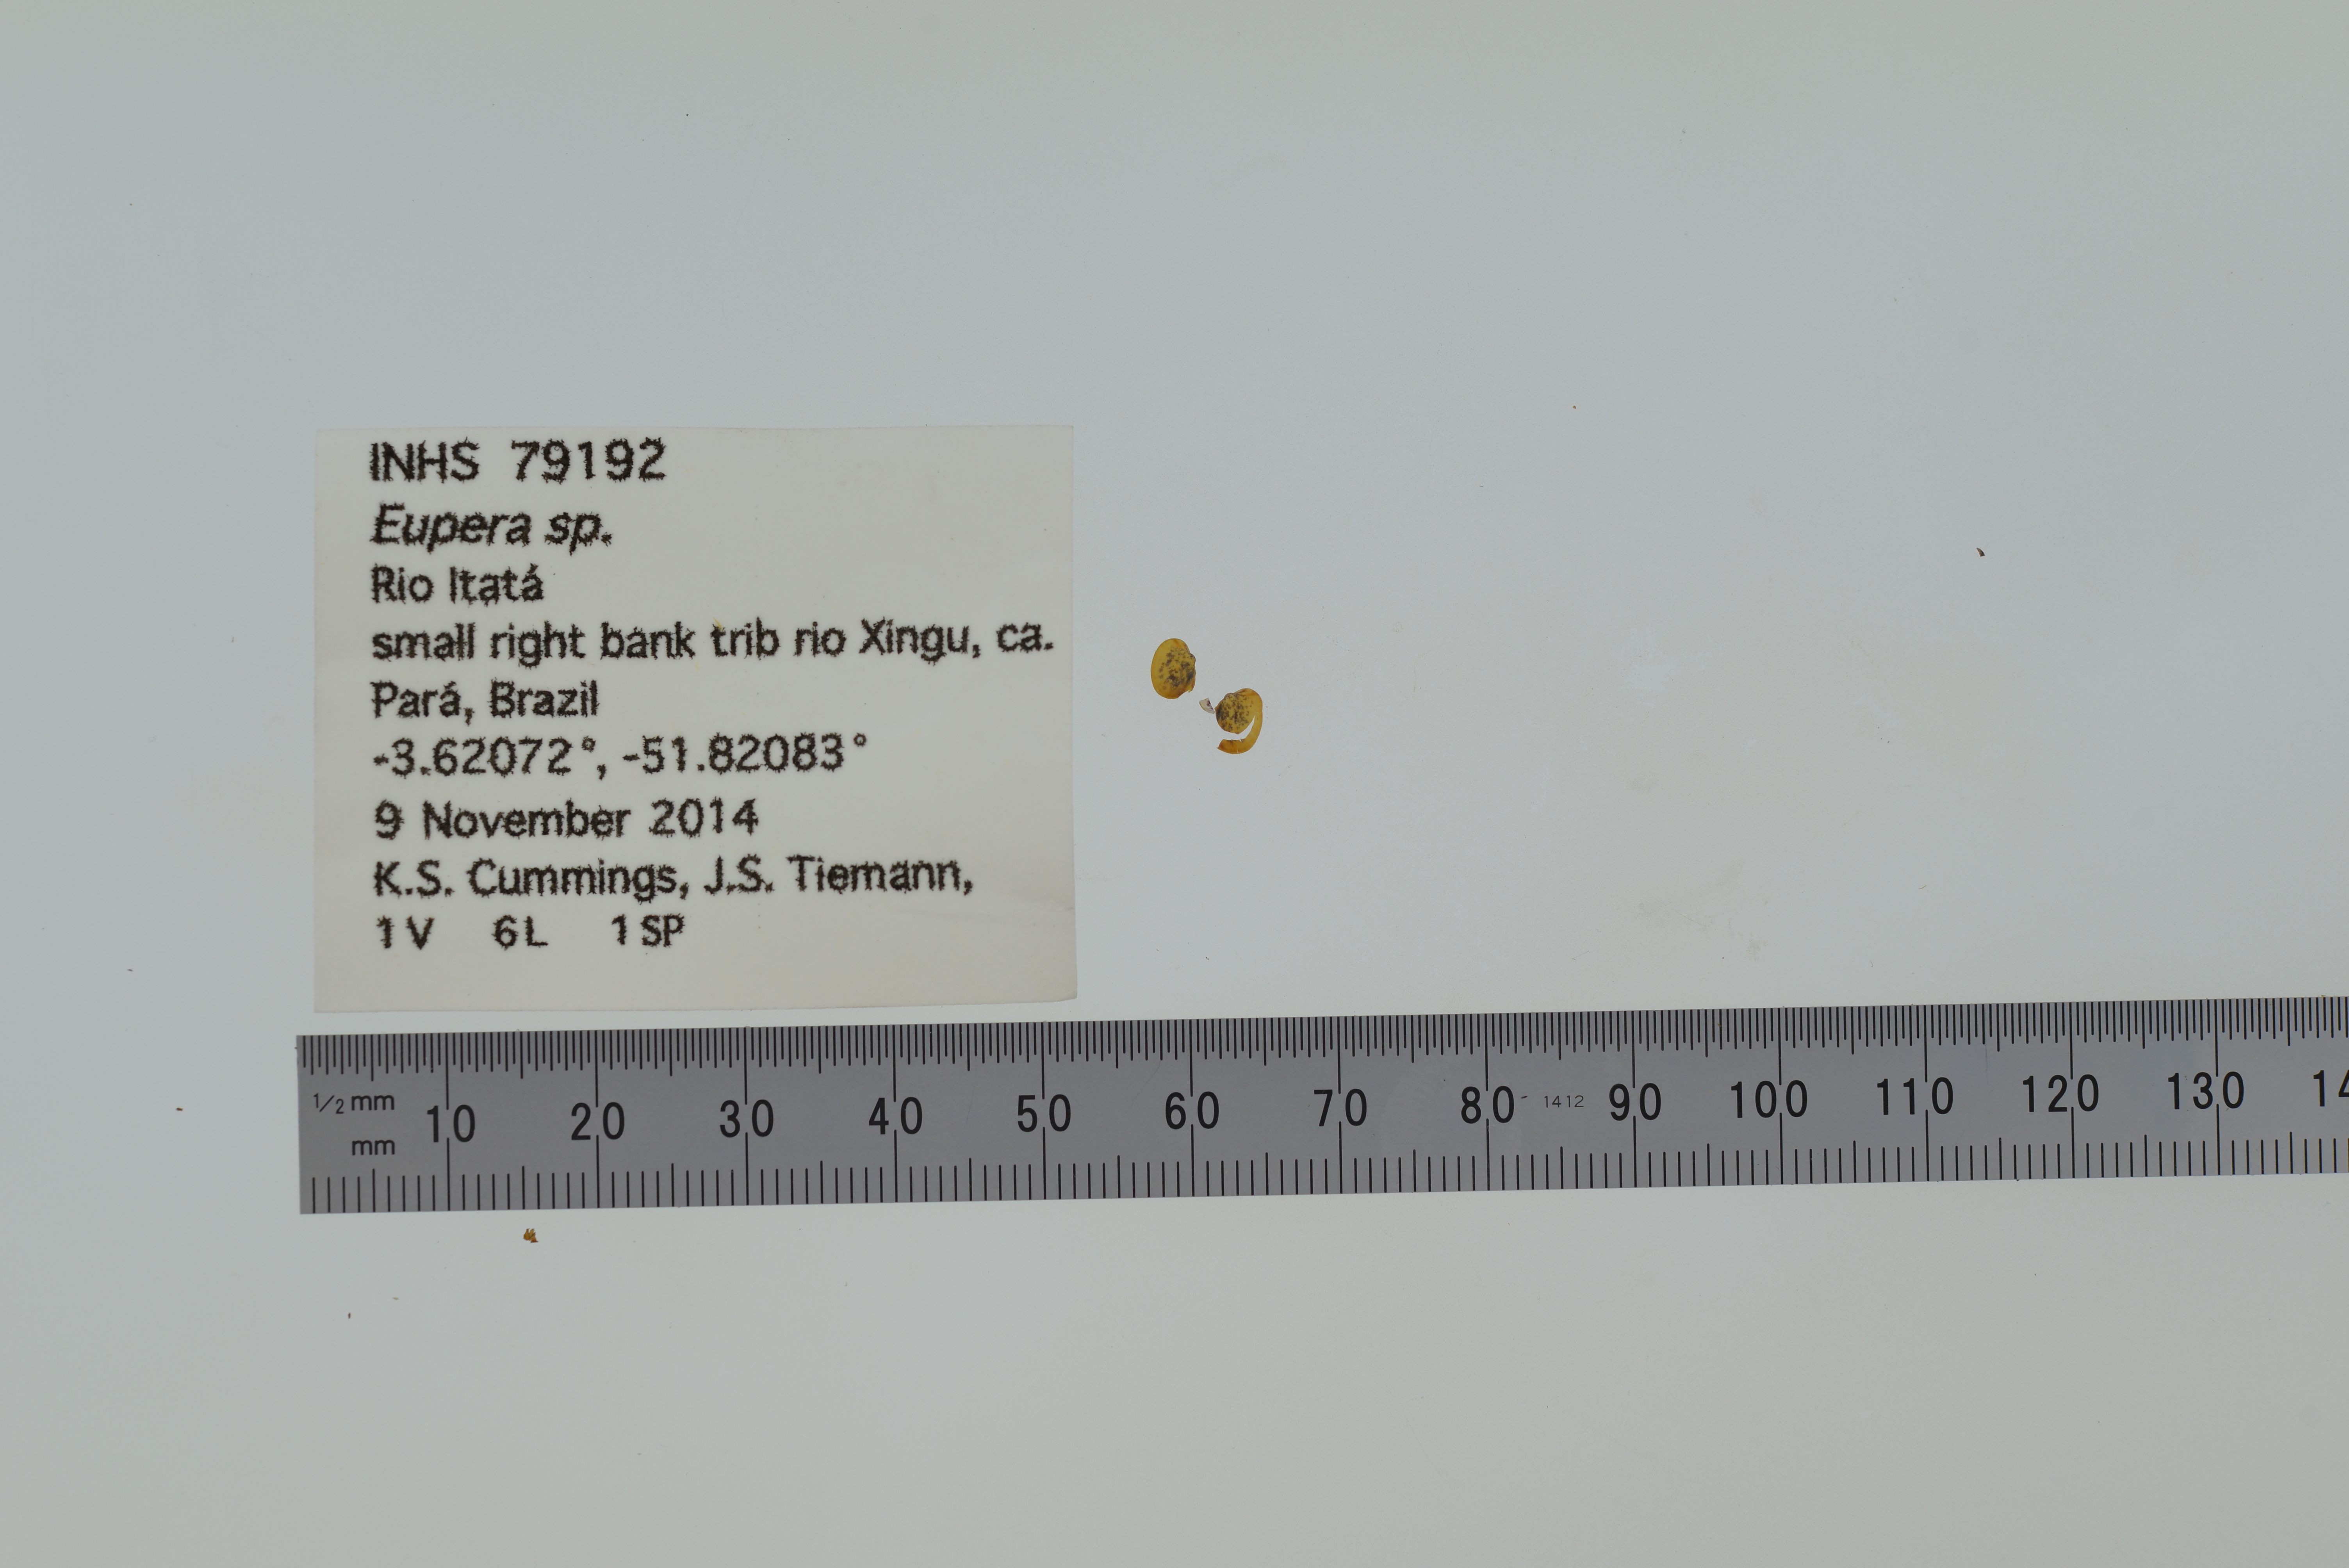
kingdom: Animalia
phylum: Mollusca
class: Bivalvia
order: Sphaeriida
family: Sphaeriidae
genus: Eupera
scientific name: Eupera
